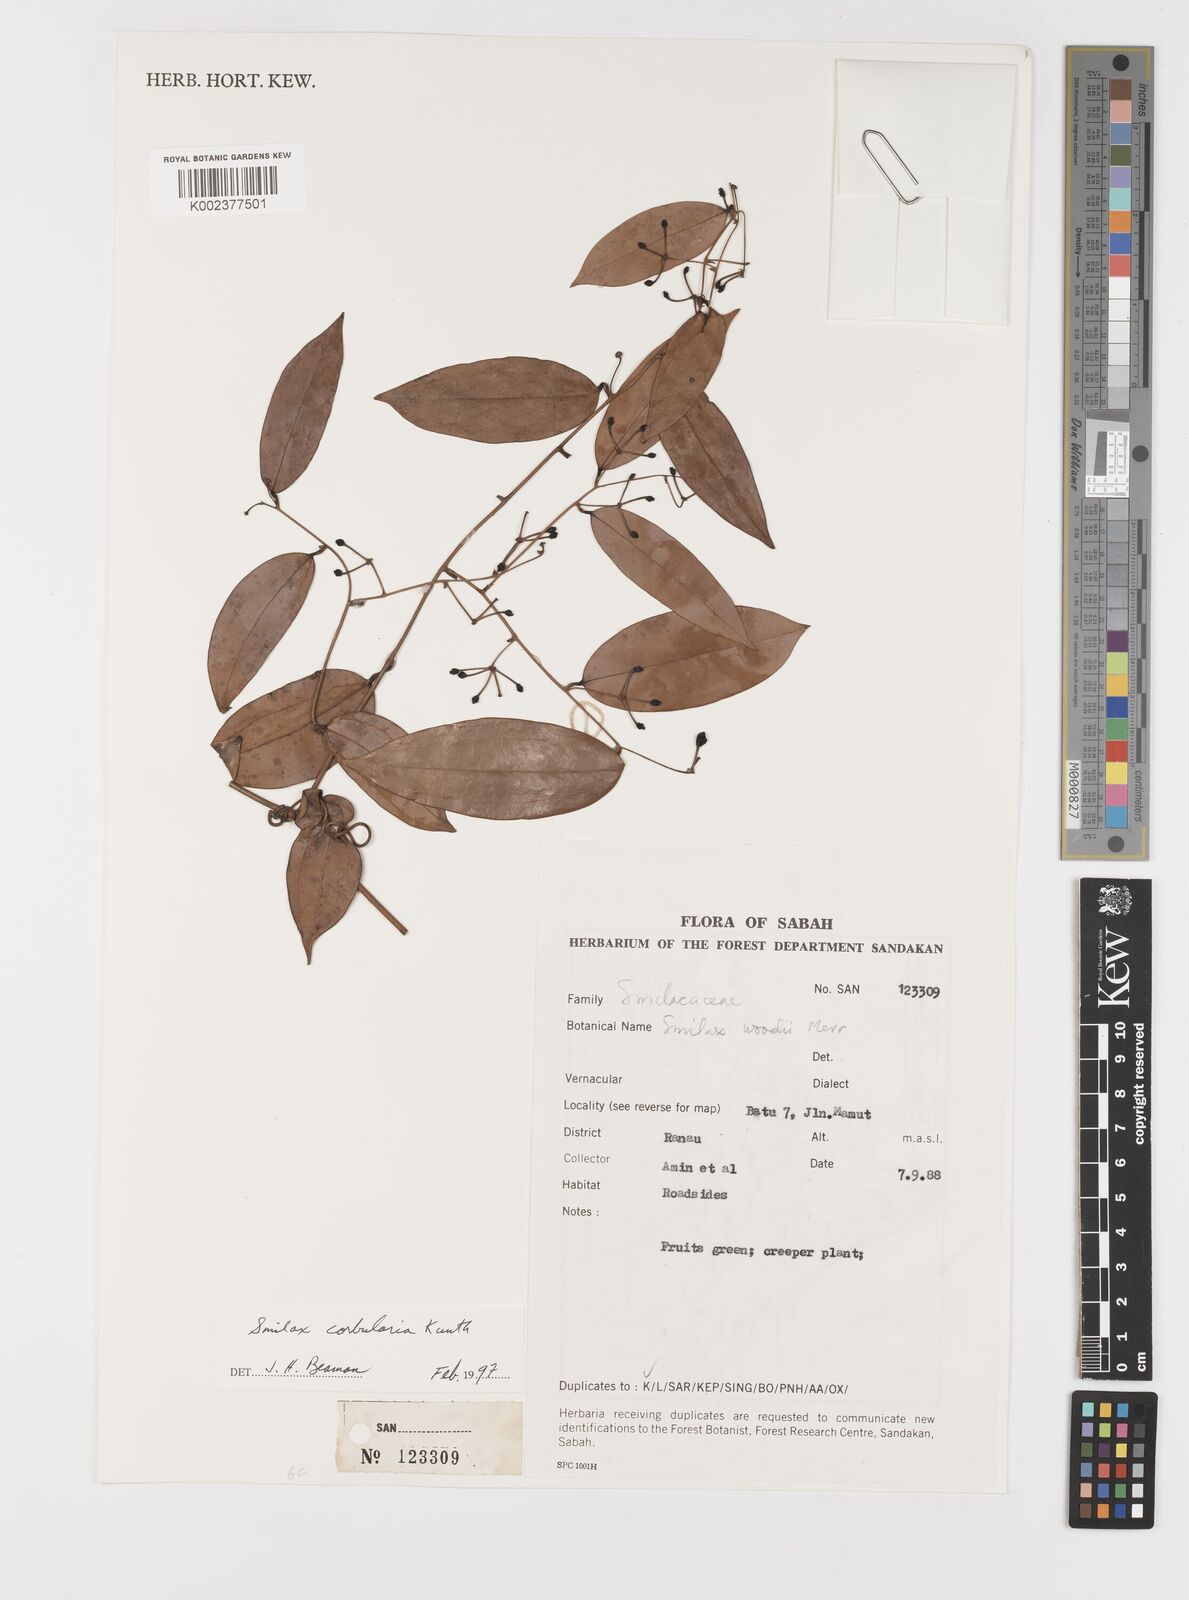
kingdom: Plantae
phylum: Tracheophyta
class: Liliopsida
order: Liliales
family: Smilacaceae
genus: Smilax
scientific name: Smilax corbularia
